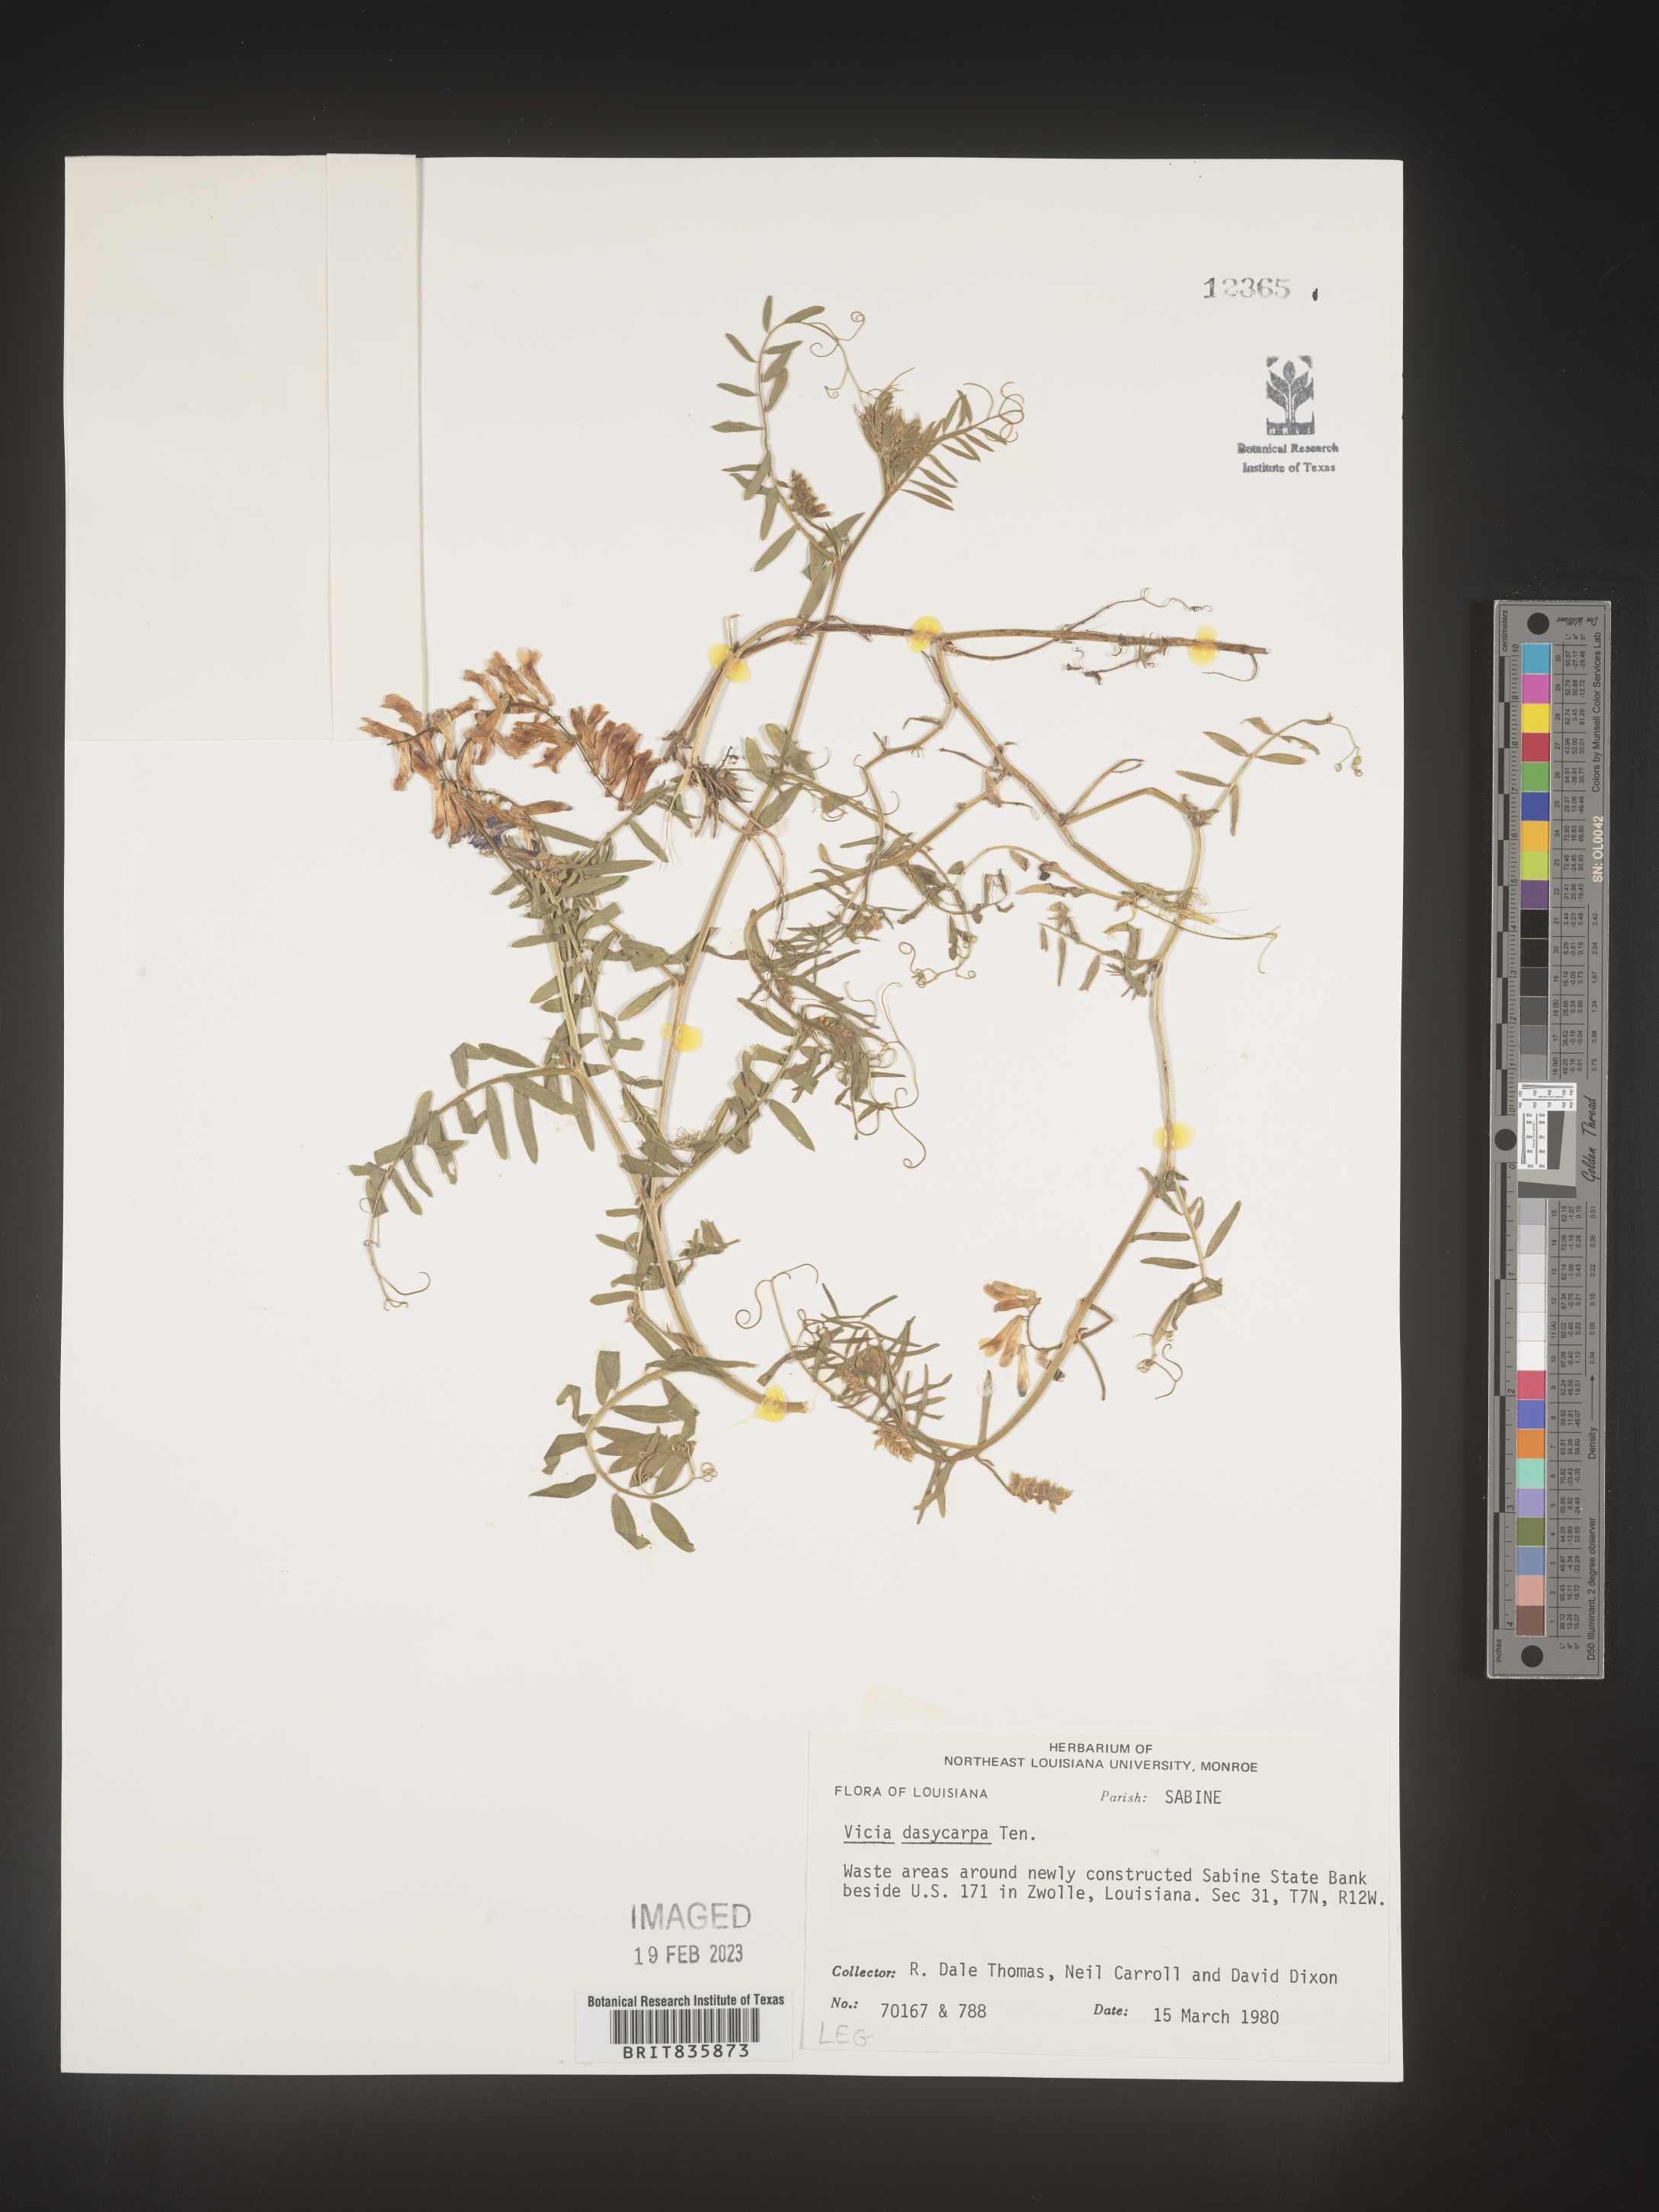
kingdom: Plantae
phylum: Tracheophyta
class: Magnoliopsida
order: Fabales
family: Fabaceae
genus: Vicia
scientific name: Vicia villosa
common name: Fodder vetch
